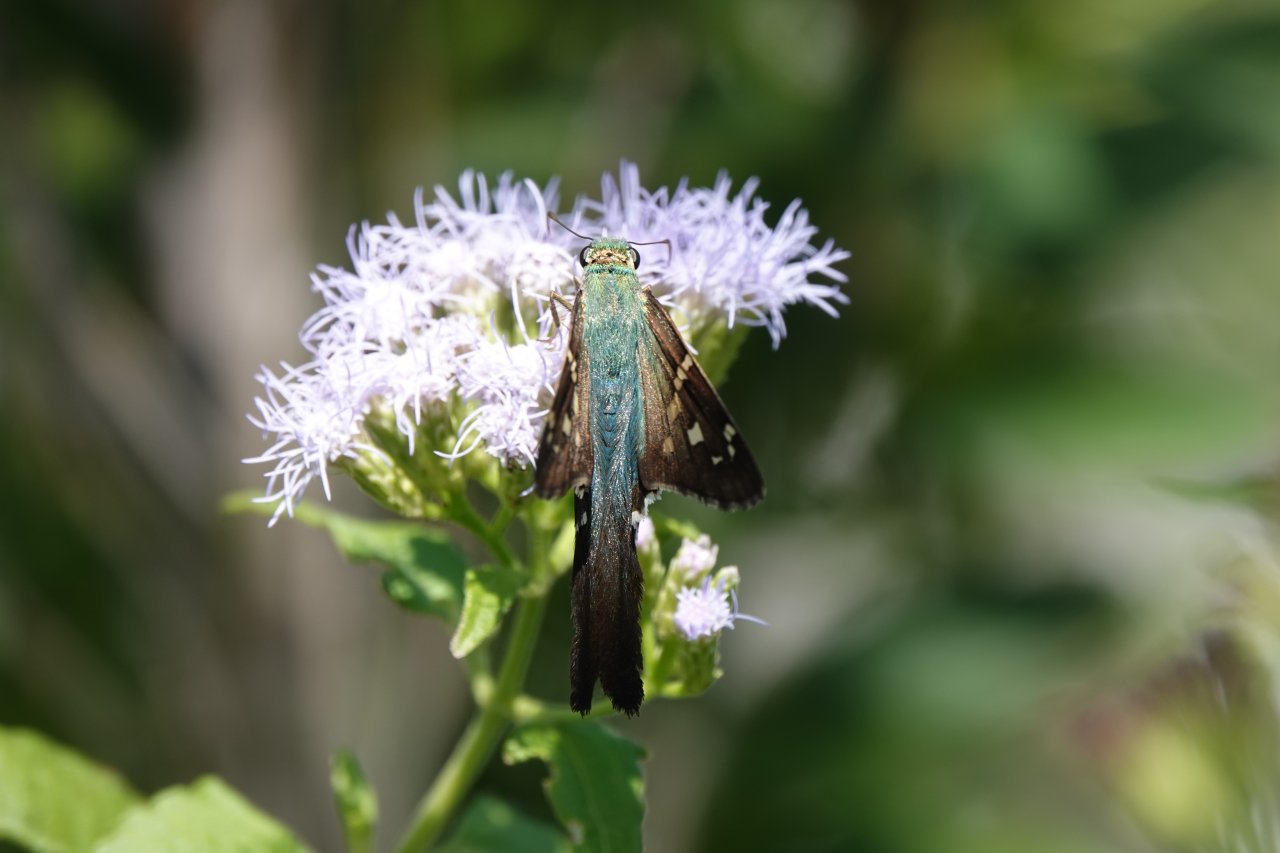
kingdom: Animalia
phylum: Arthropoda
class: Insecta
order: Lepidoptera
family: Hesperiidae
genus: Urbanus
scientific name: Urbanus proteus
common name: Long-tailed Skipper
